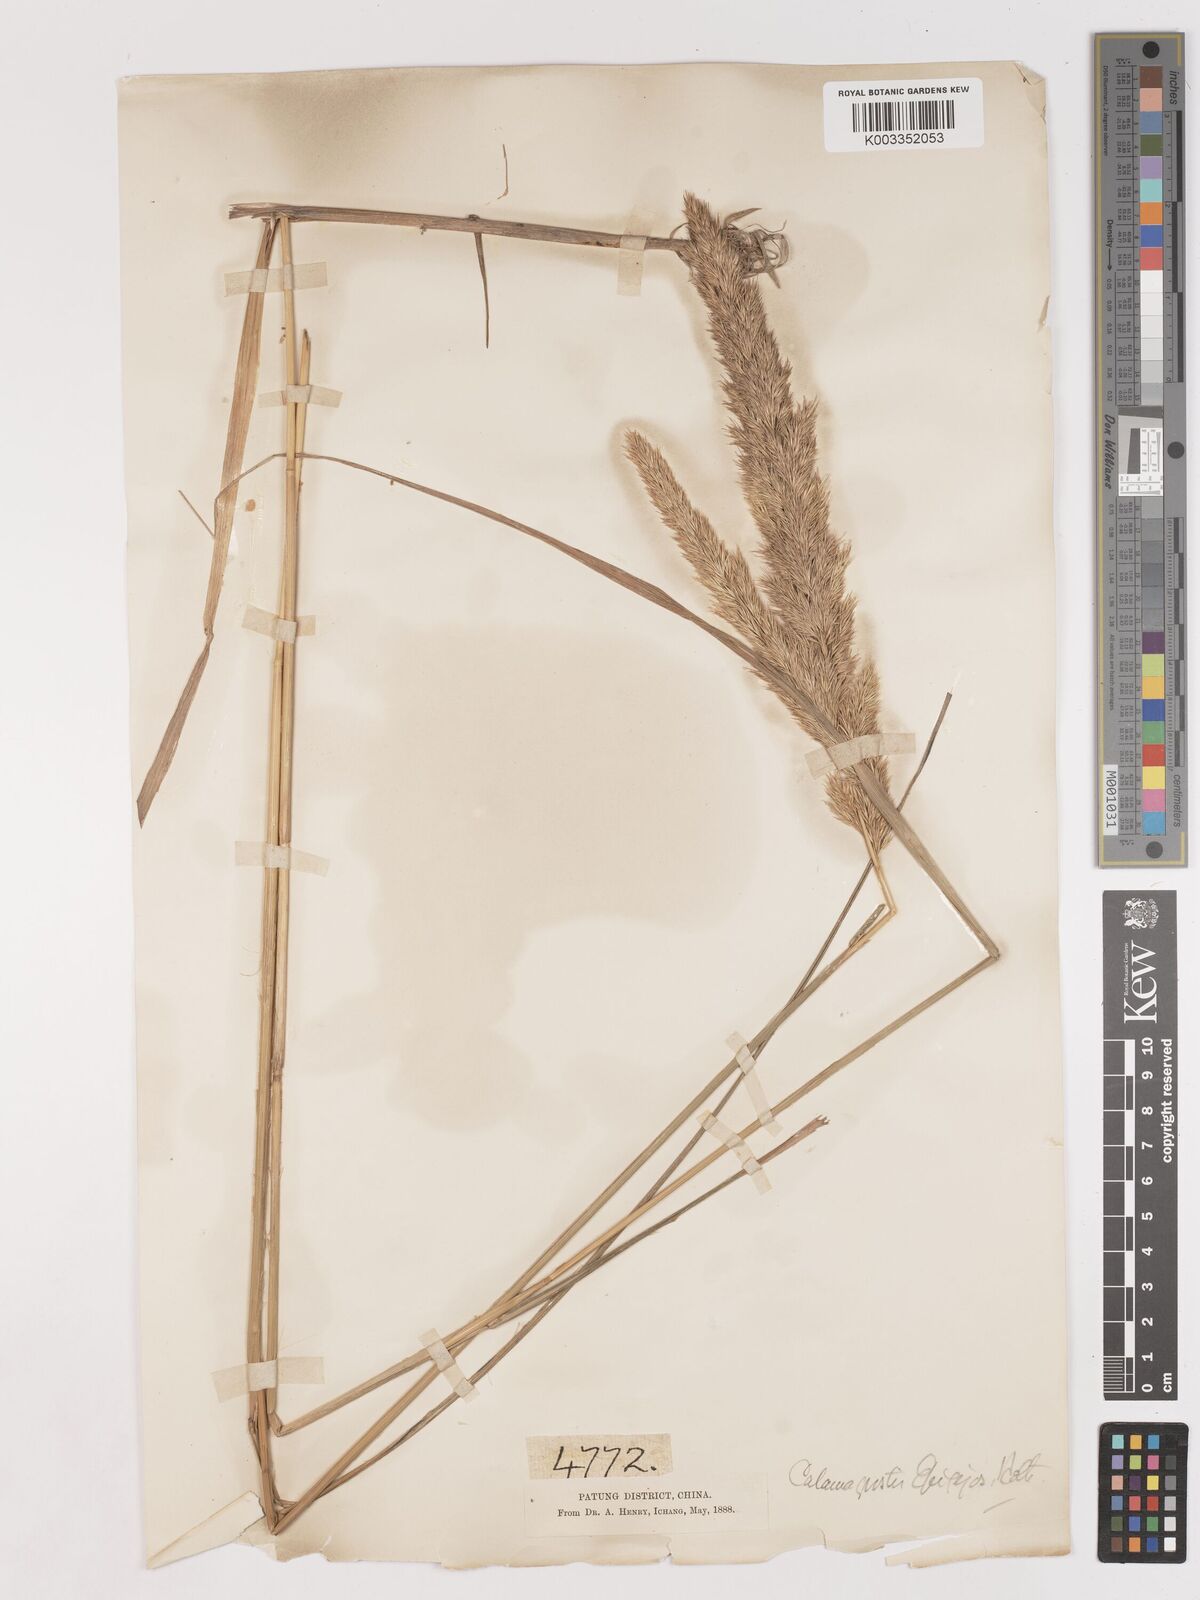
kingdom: Plantae
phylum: Tracheophyta
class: Liliopsida
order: Poales
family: Poaceae
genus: Calamagrostis
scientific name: Calamagrostis epigejos
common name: Wood small-reed
